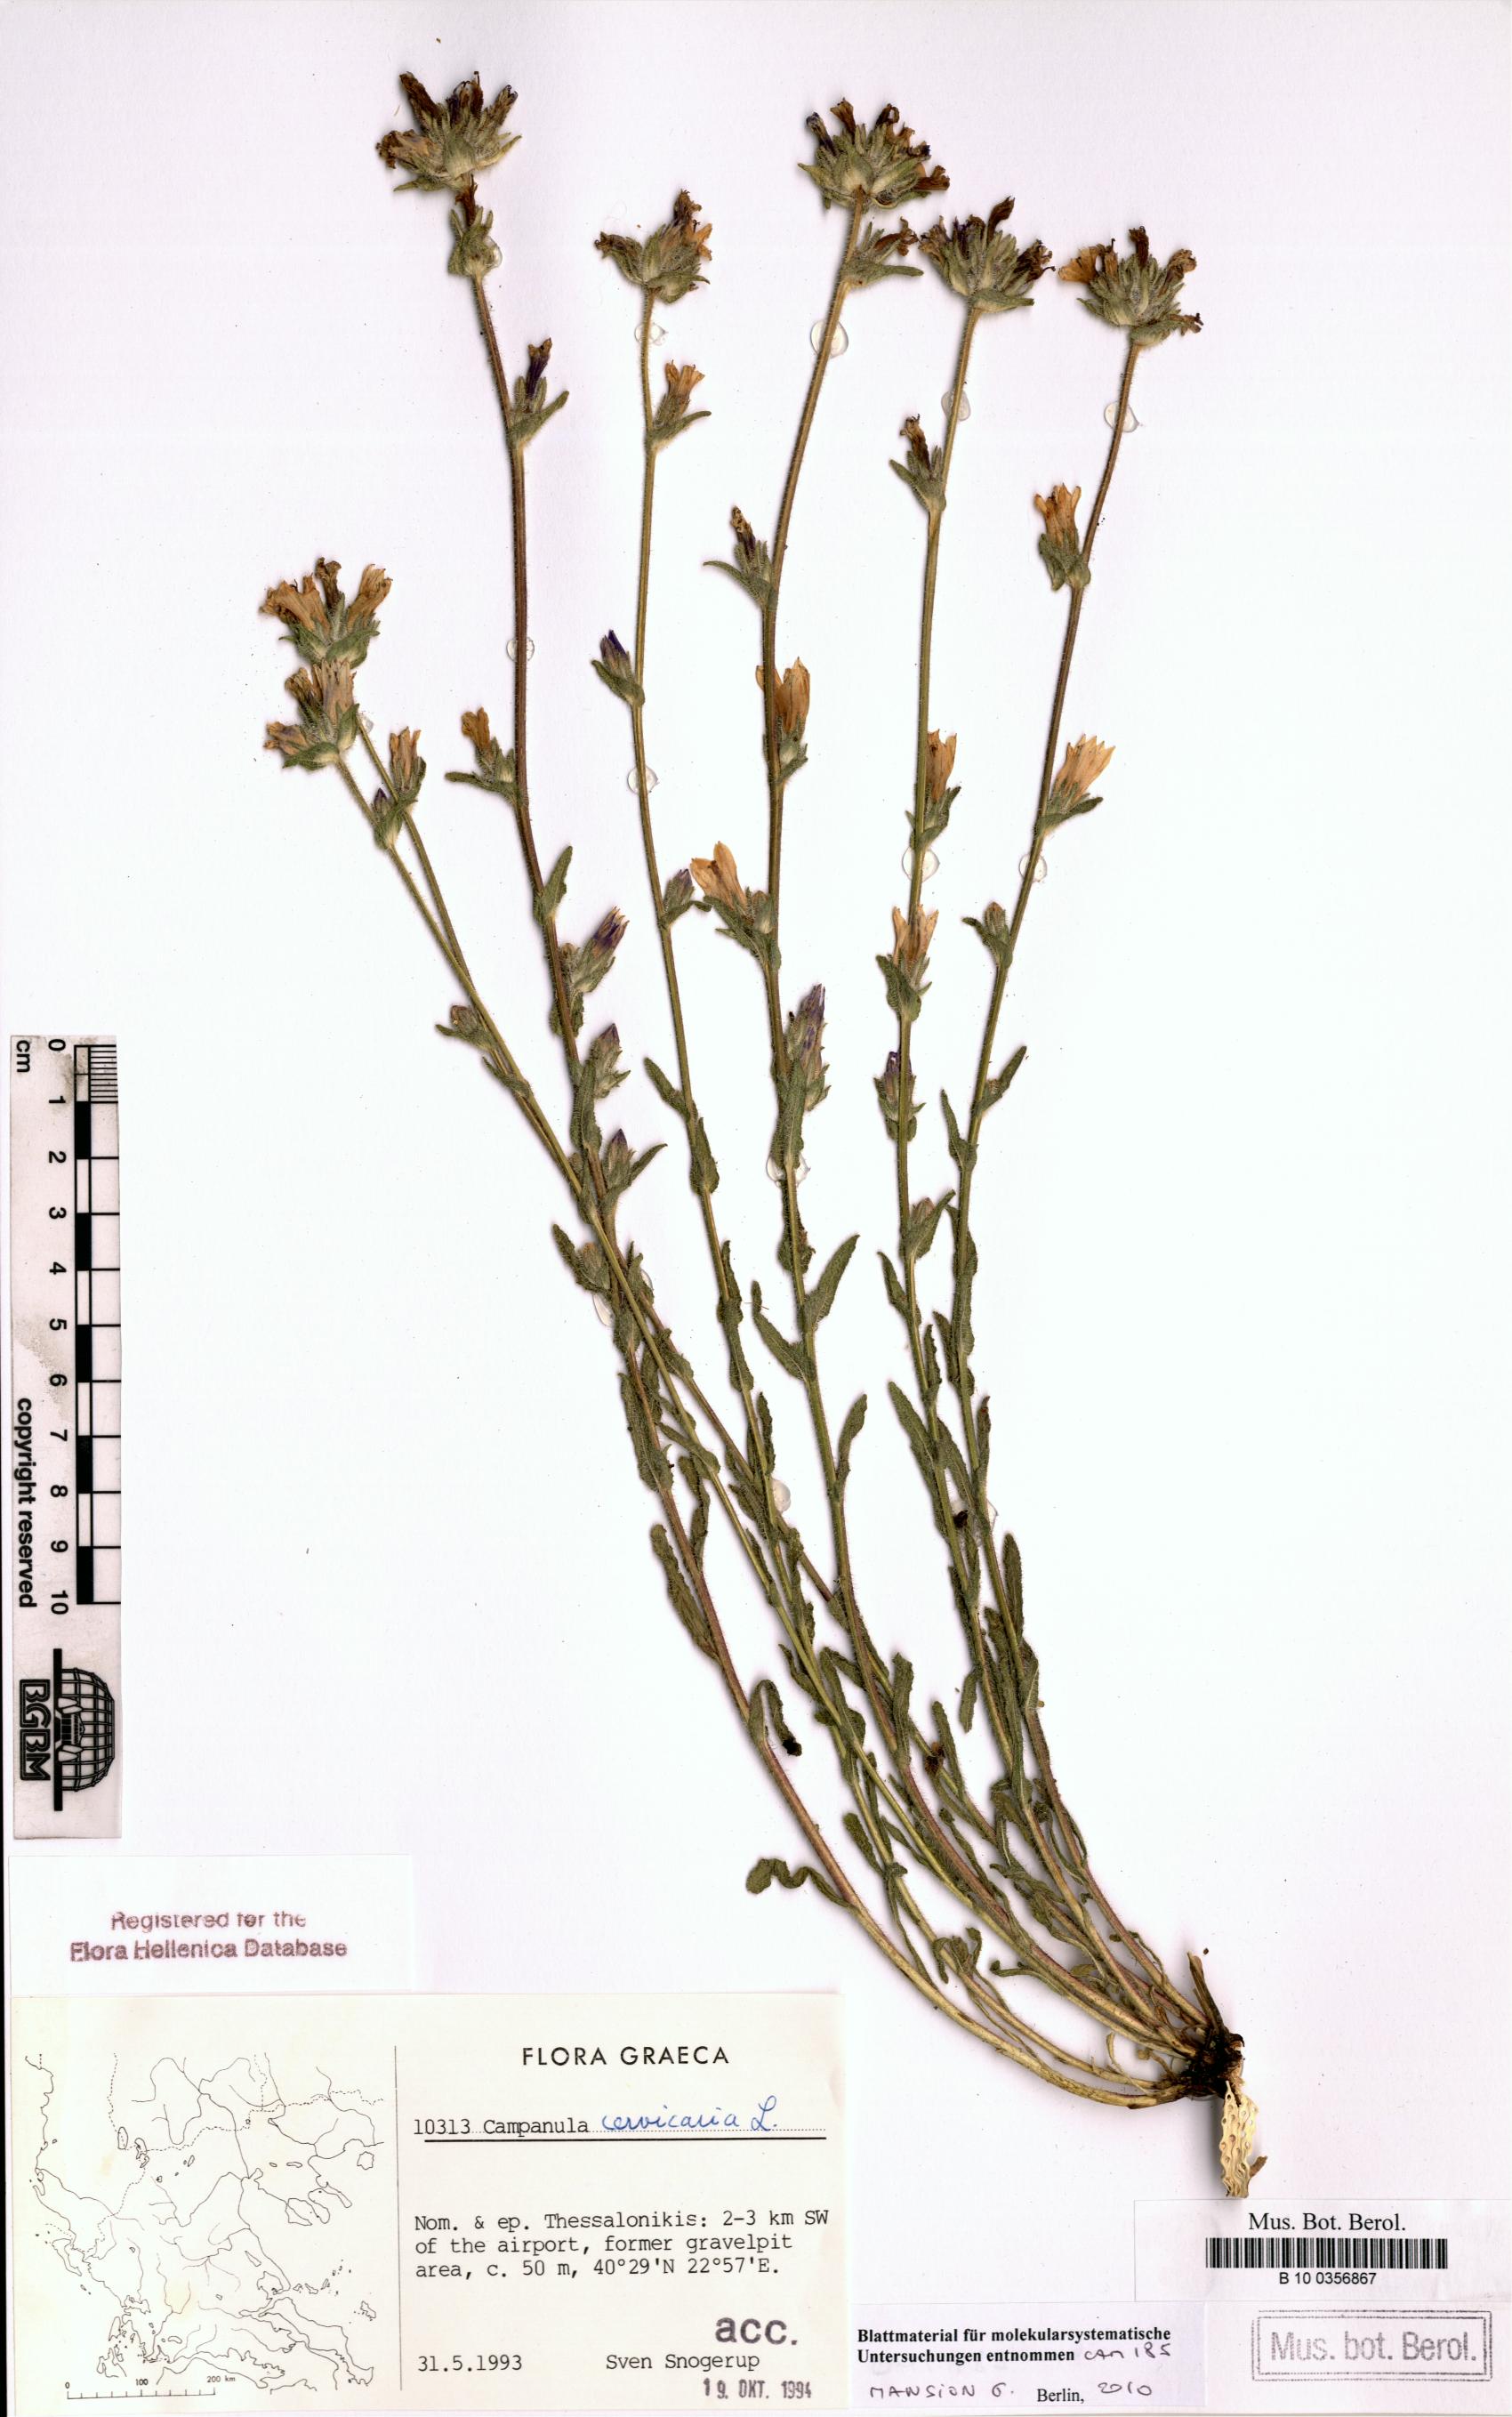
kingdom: Plantae
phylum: Tracheophyta
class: Magnoliopsida
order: Asterales
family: Campanulaceae
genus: Campanula
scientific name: Campanula cervicaria
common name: Bristly bellflower
